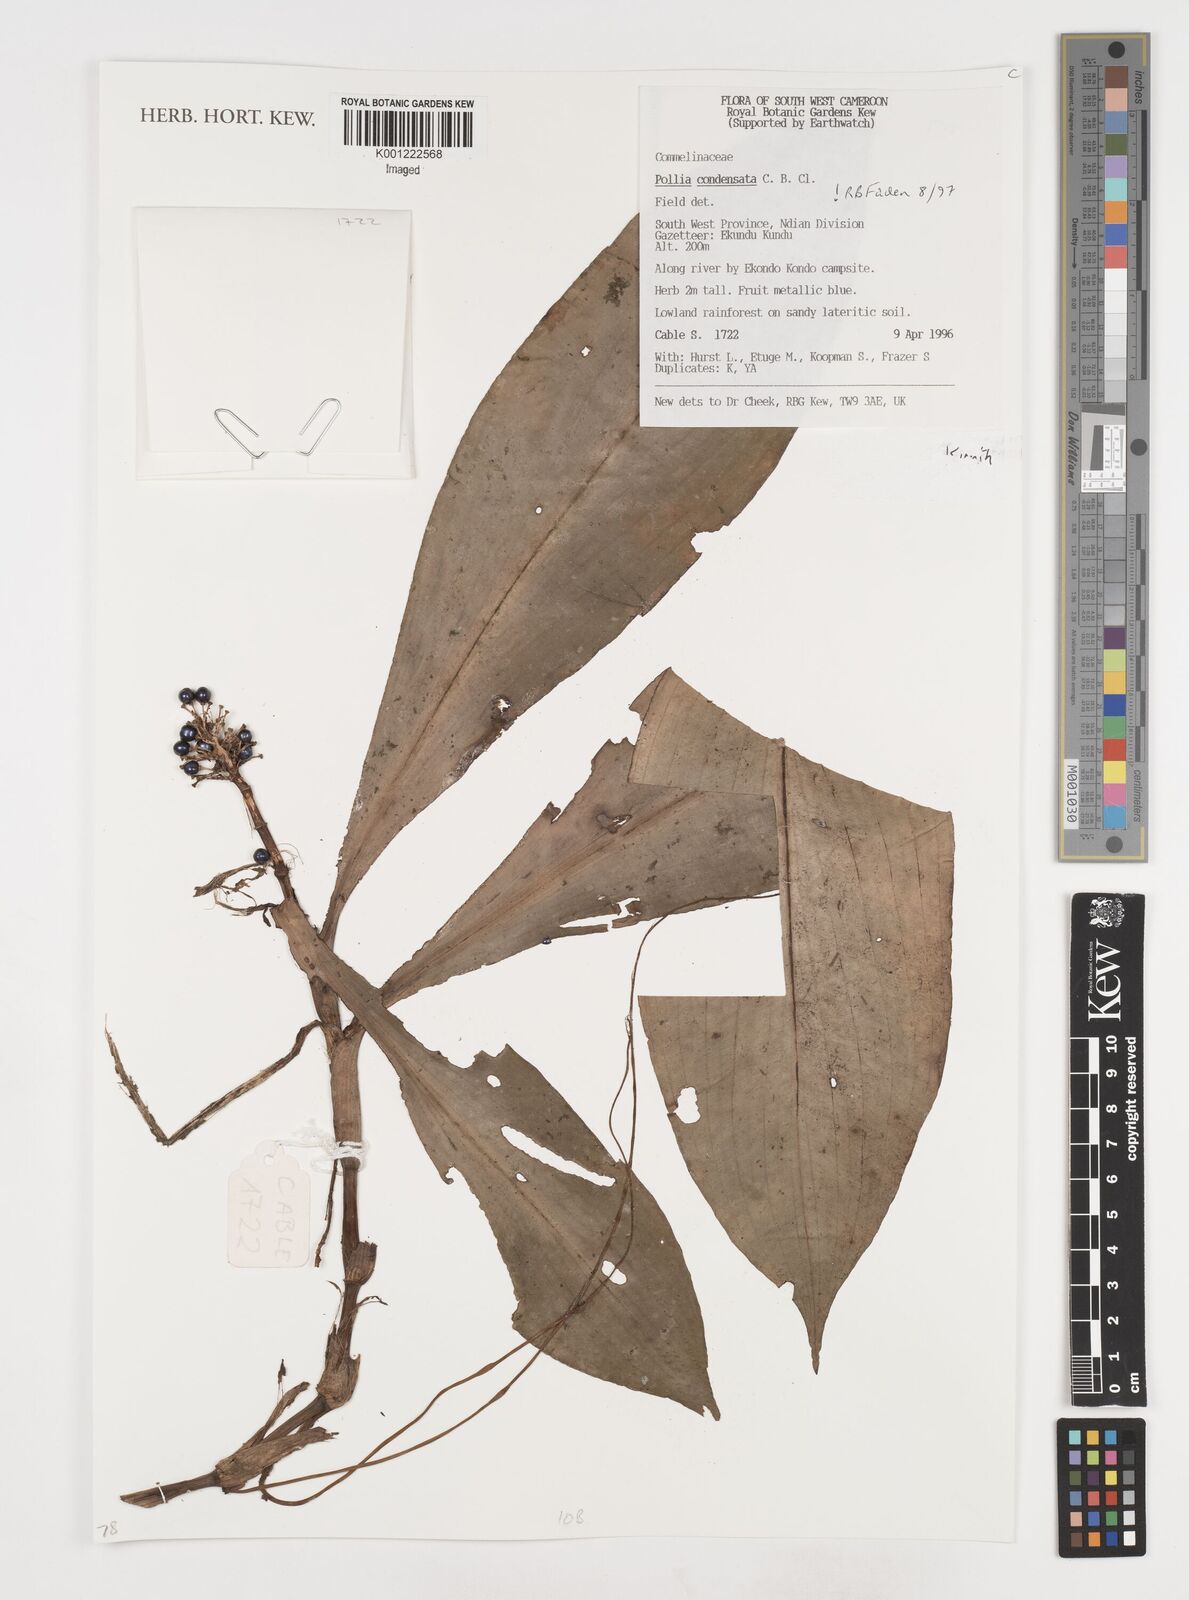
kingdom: Plantae
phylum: Tracheophyta
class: Liliopsida
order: Commelinales
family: Commelinaceae
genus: Aneilema
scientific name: Aneilema beniniense
